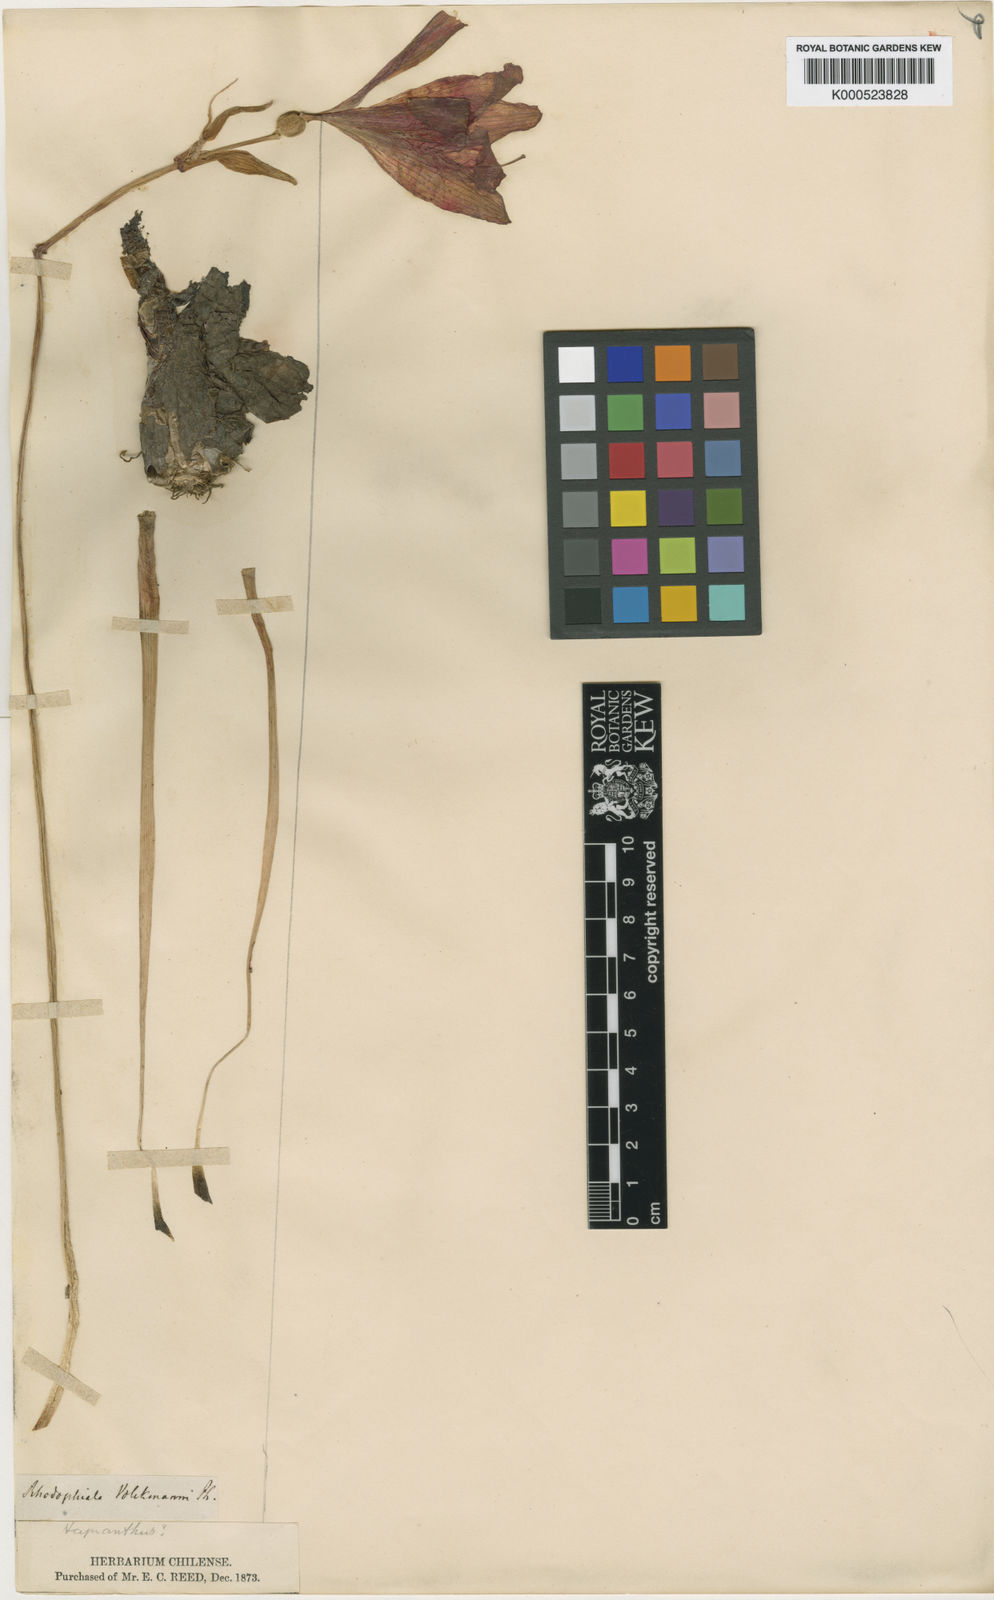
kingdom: Plantae
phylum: Tracheophyta
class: Liliopsida
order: Asparagales
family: Amaryllidaceae
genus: Phycella
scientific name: Phycella chilensis
